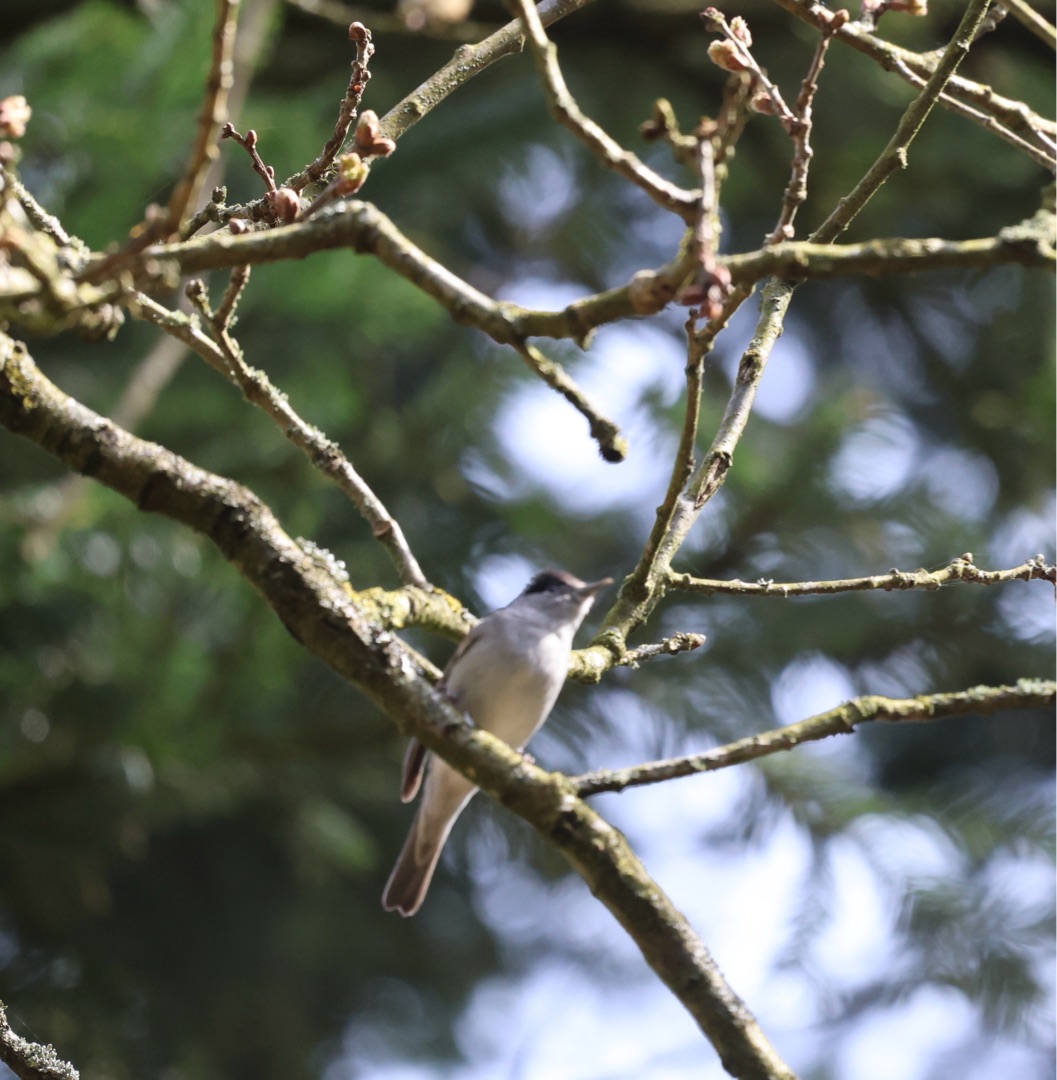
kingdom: Animalia
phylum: Chordata
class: Aves
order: Passeriformes
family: Sylviidae
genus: Sylvia
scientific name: Sylvia atricapilla
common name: Munk
